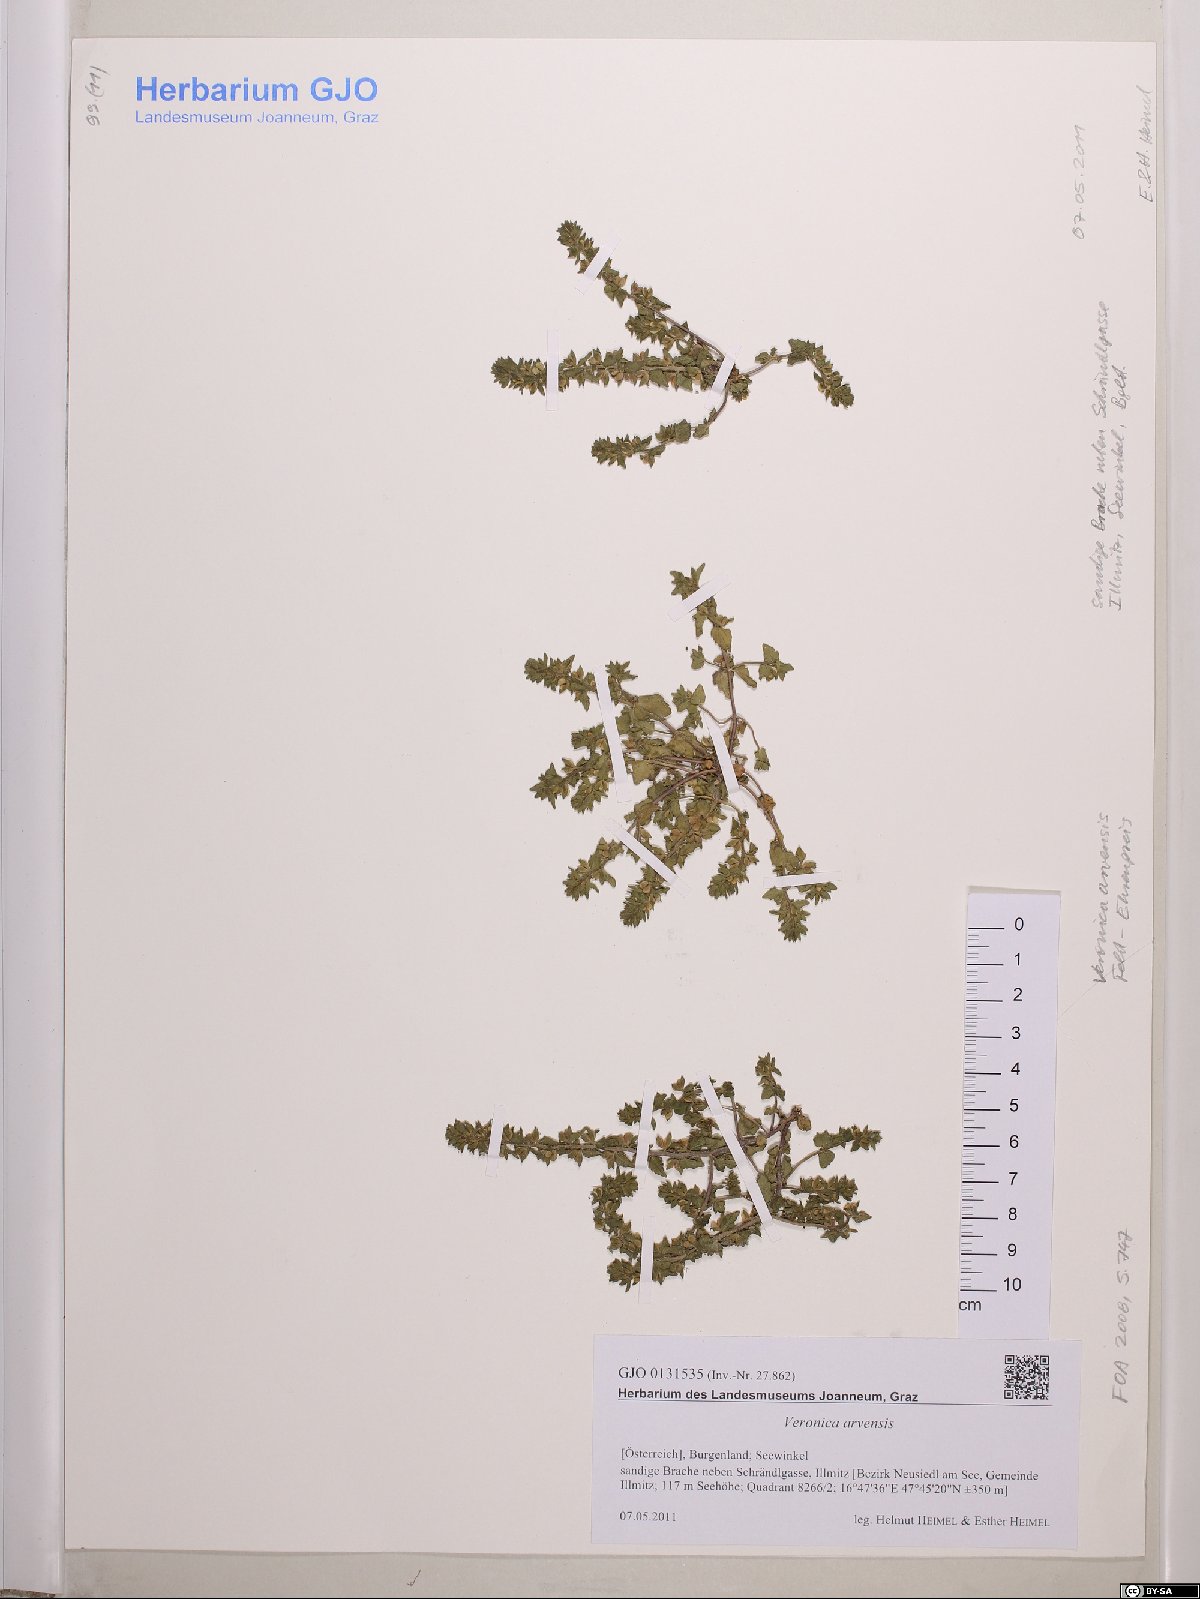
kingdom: Plantae
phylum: Tracheophyta
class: Magnoliopsida
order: Lamiales
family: Plantaginaceae
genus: Veronica
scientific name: Veronica arvensis
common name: Corn speedwell
